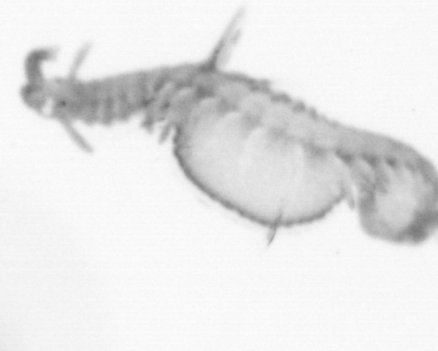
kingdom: Animalia
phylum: Annelida
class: Polychaeta
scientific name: Polychaeta
